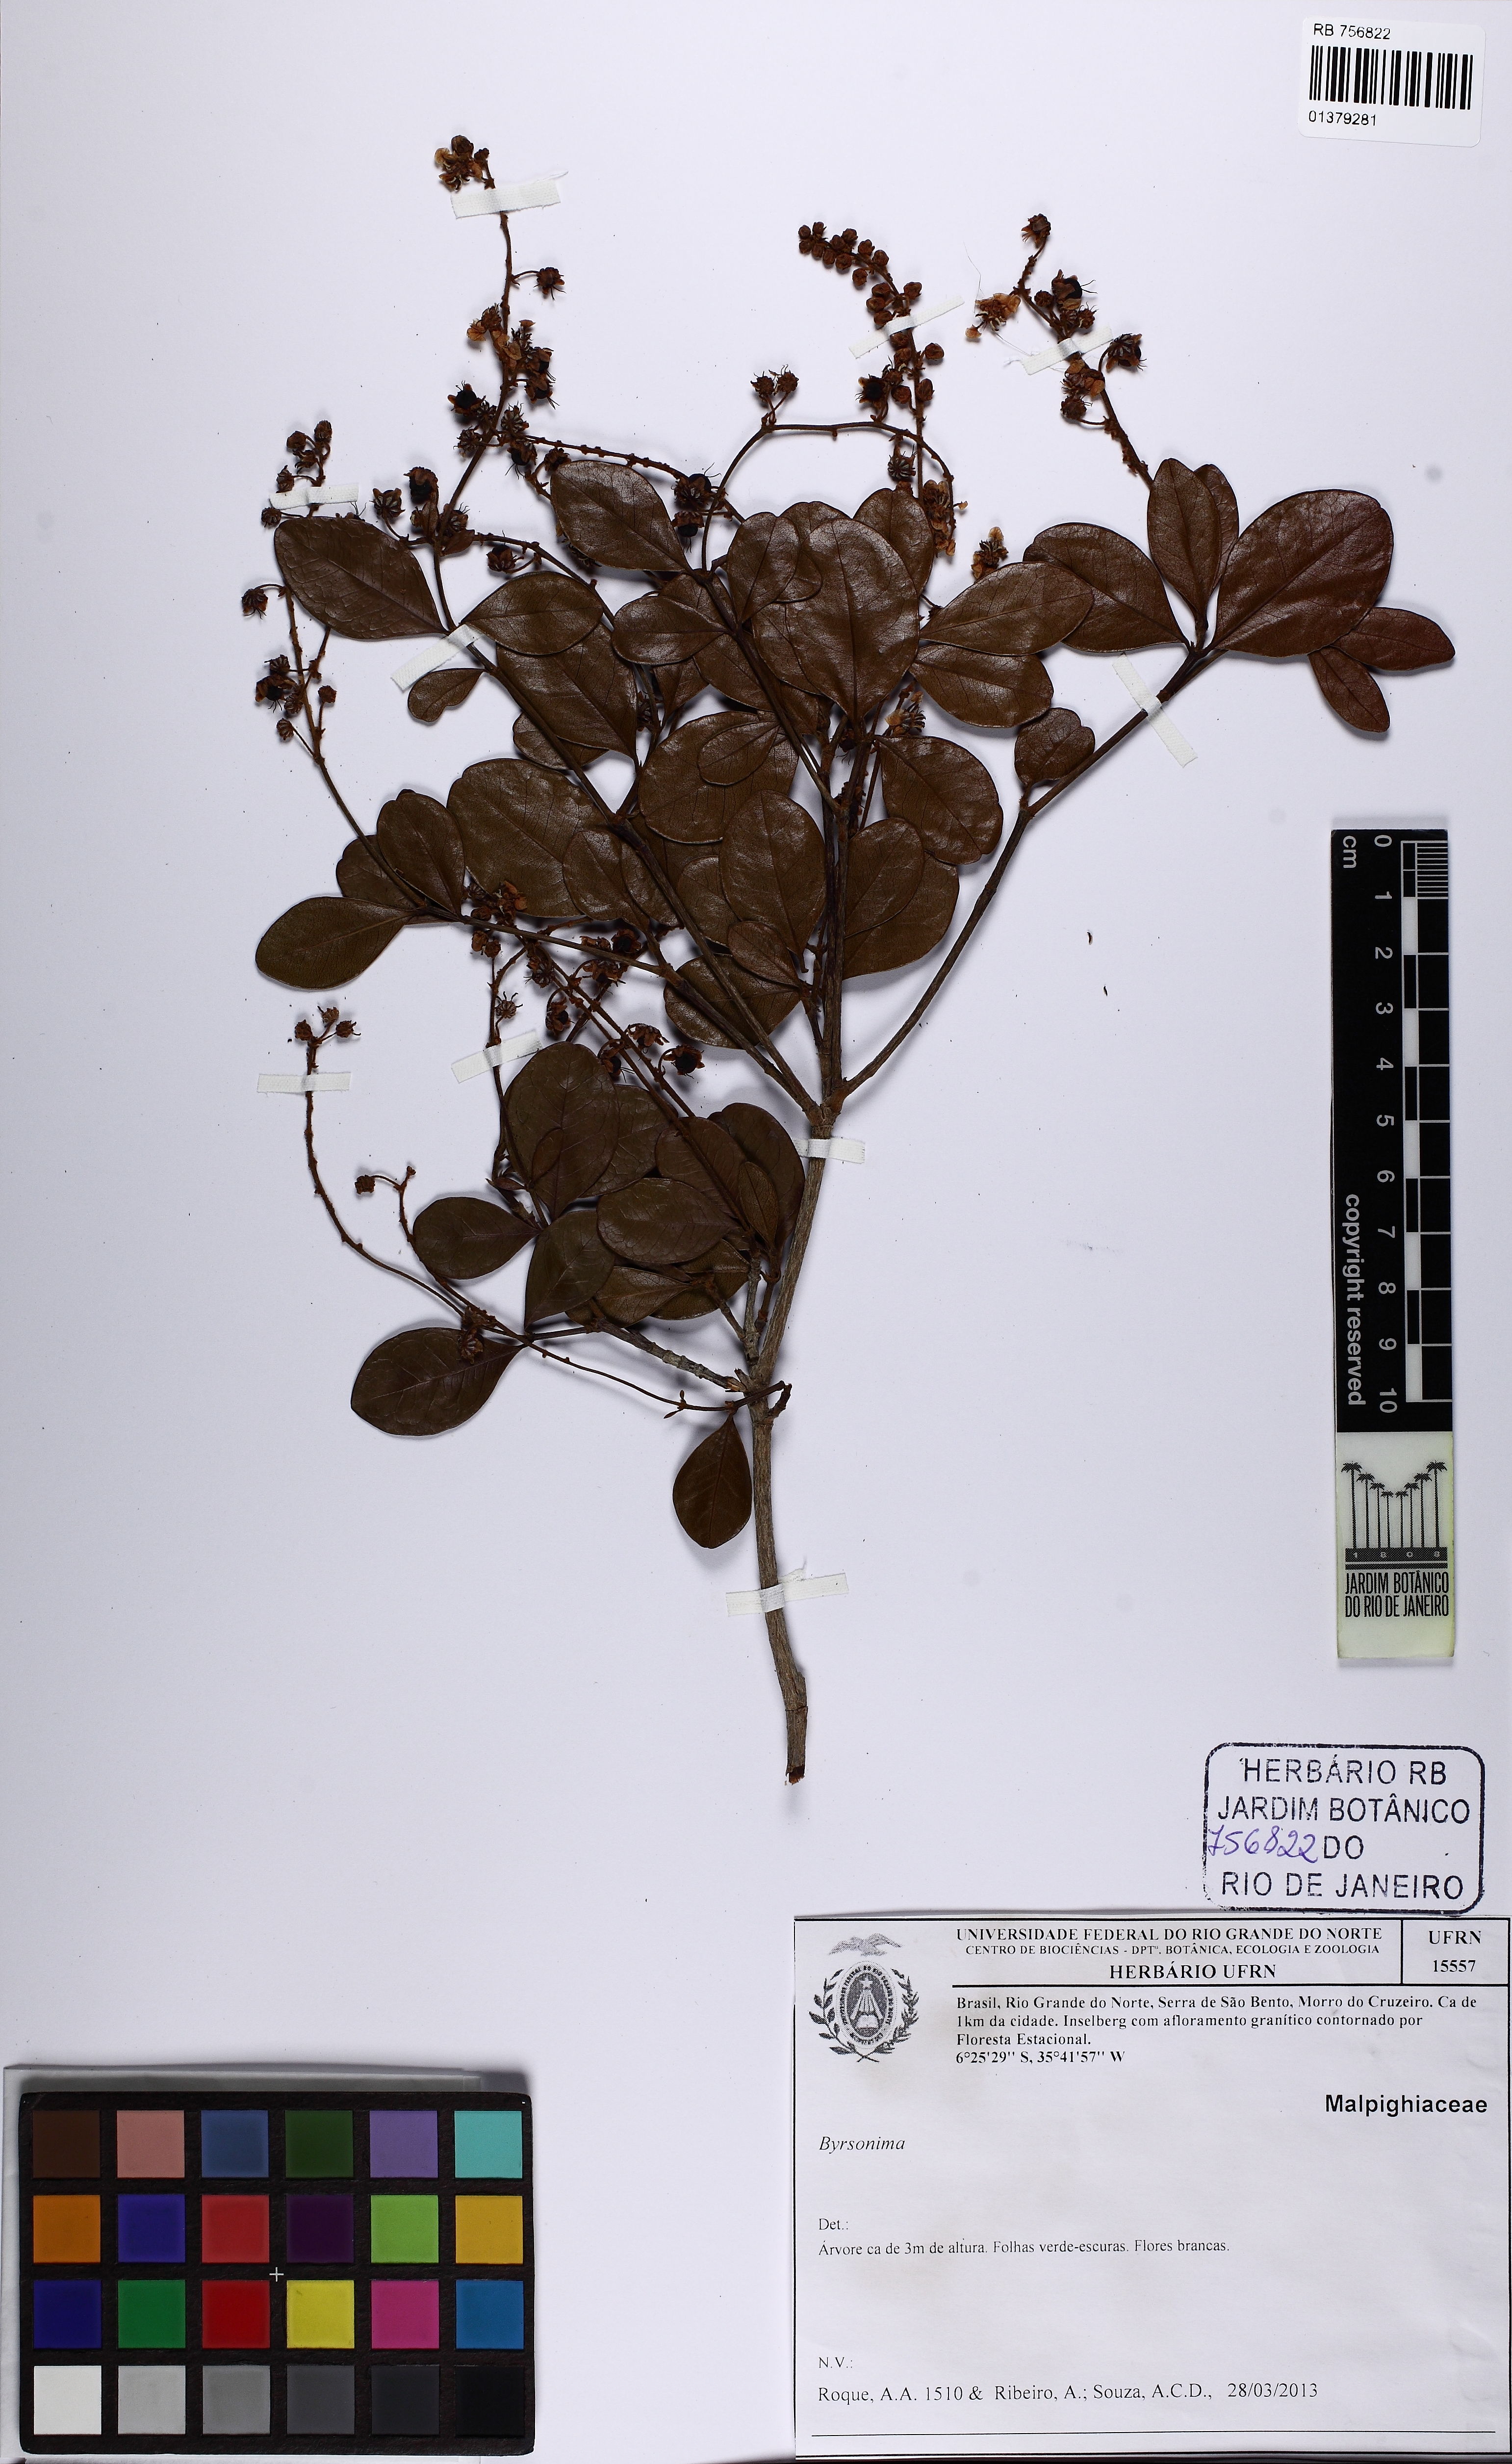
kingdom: Plantae
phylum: Tracheophyta
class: Magnoliopsida
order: Malpighiales
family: Malpighiaceae
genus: Byrsonima
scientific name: Byrsonima
